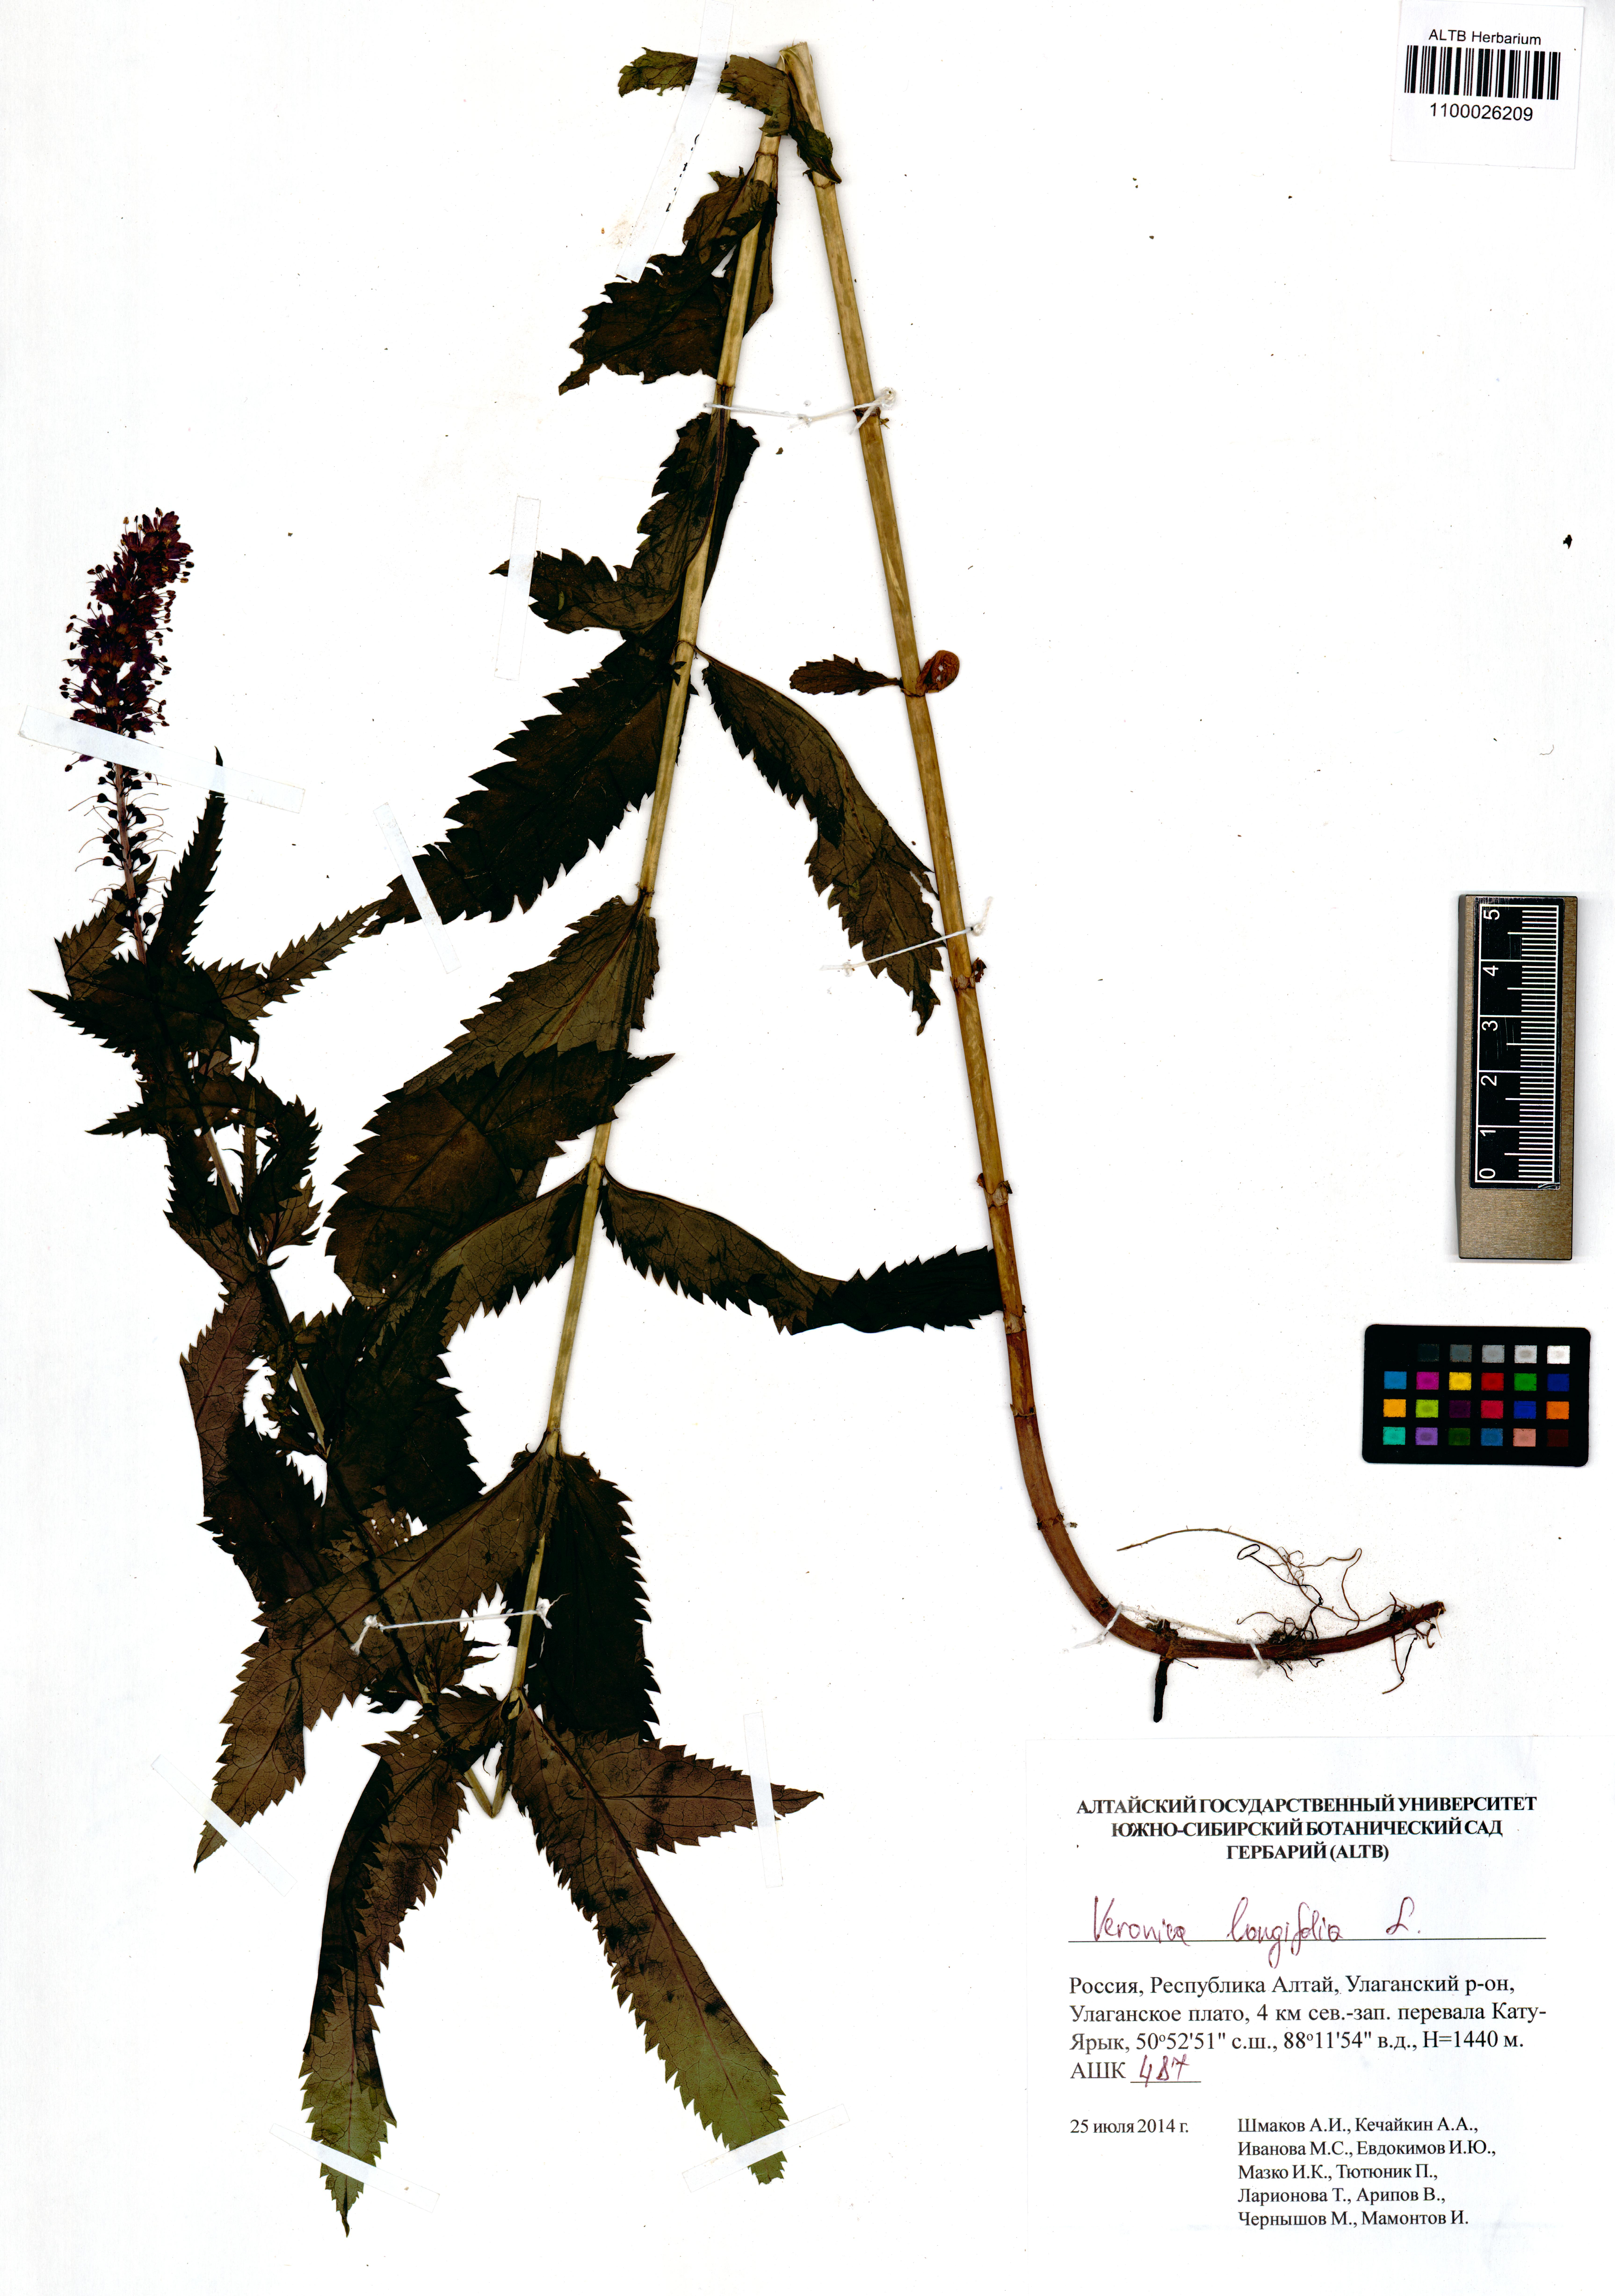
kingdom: Plantae
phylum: Tracheophyta
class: Magnoliopsida
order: Lamiales
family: Plantaginaceae
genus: Veronica
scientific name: Veronica longifolia
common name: Garden speedwell
